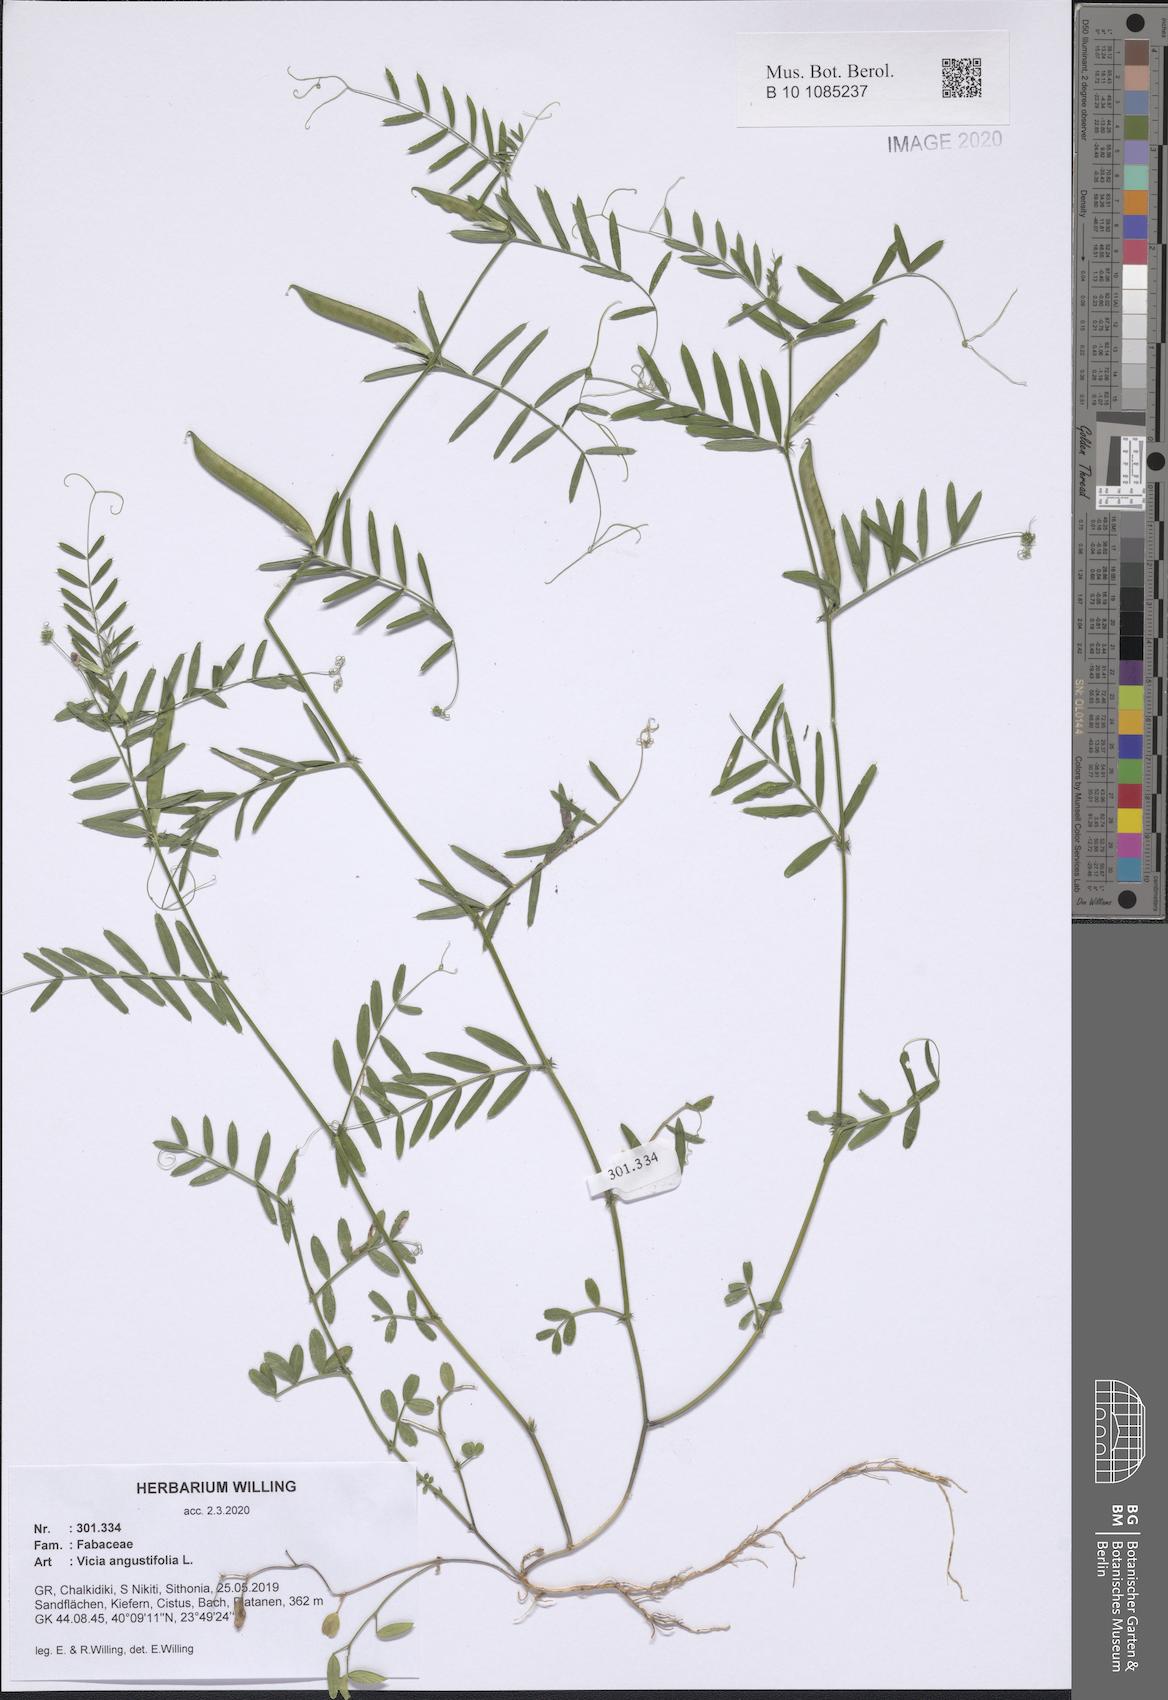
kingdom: Plantae
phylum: Tracheophyta
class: Magnoliopsida
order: Fabales
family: Fabaceae
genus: Vicia
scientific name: Vicia sativa
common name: Garden vetch
